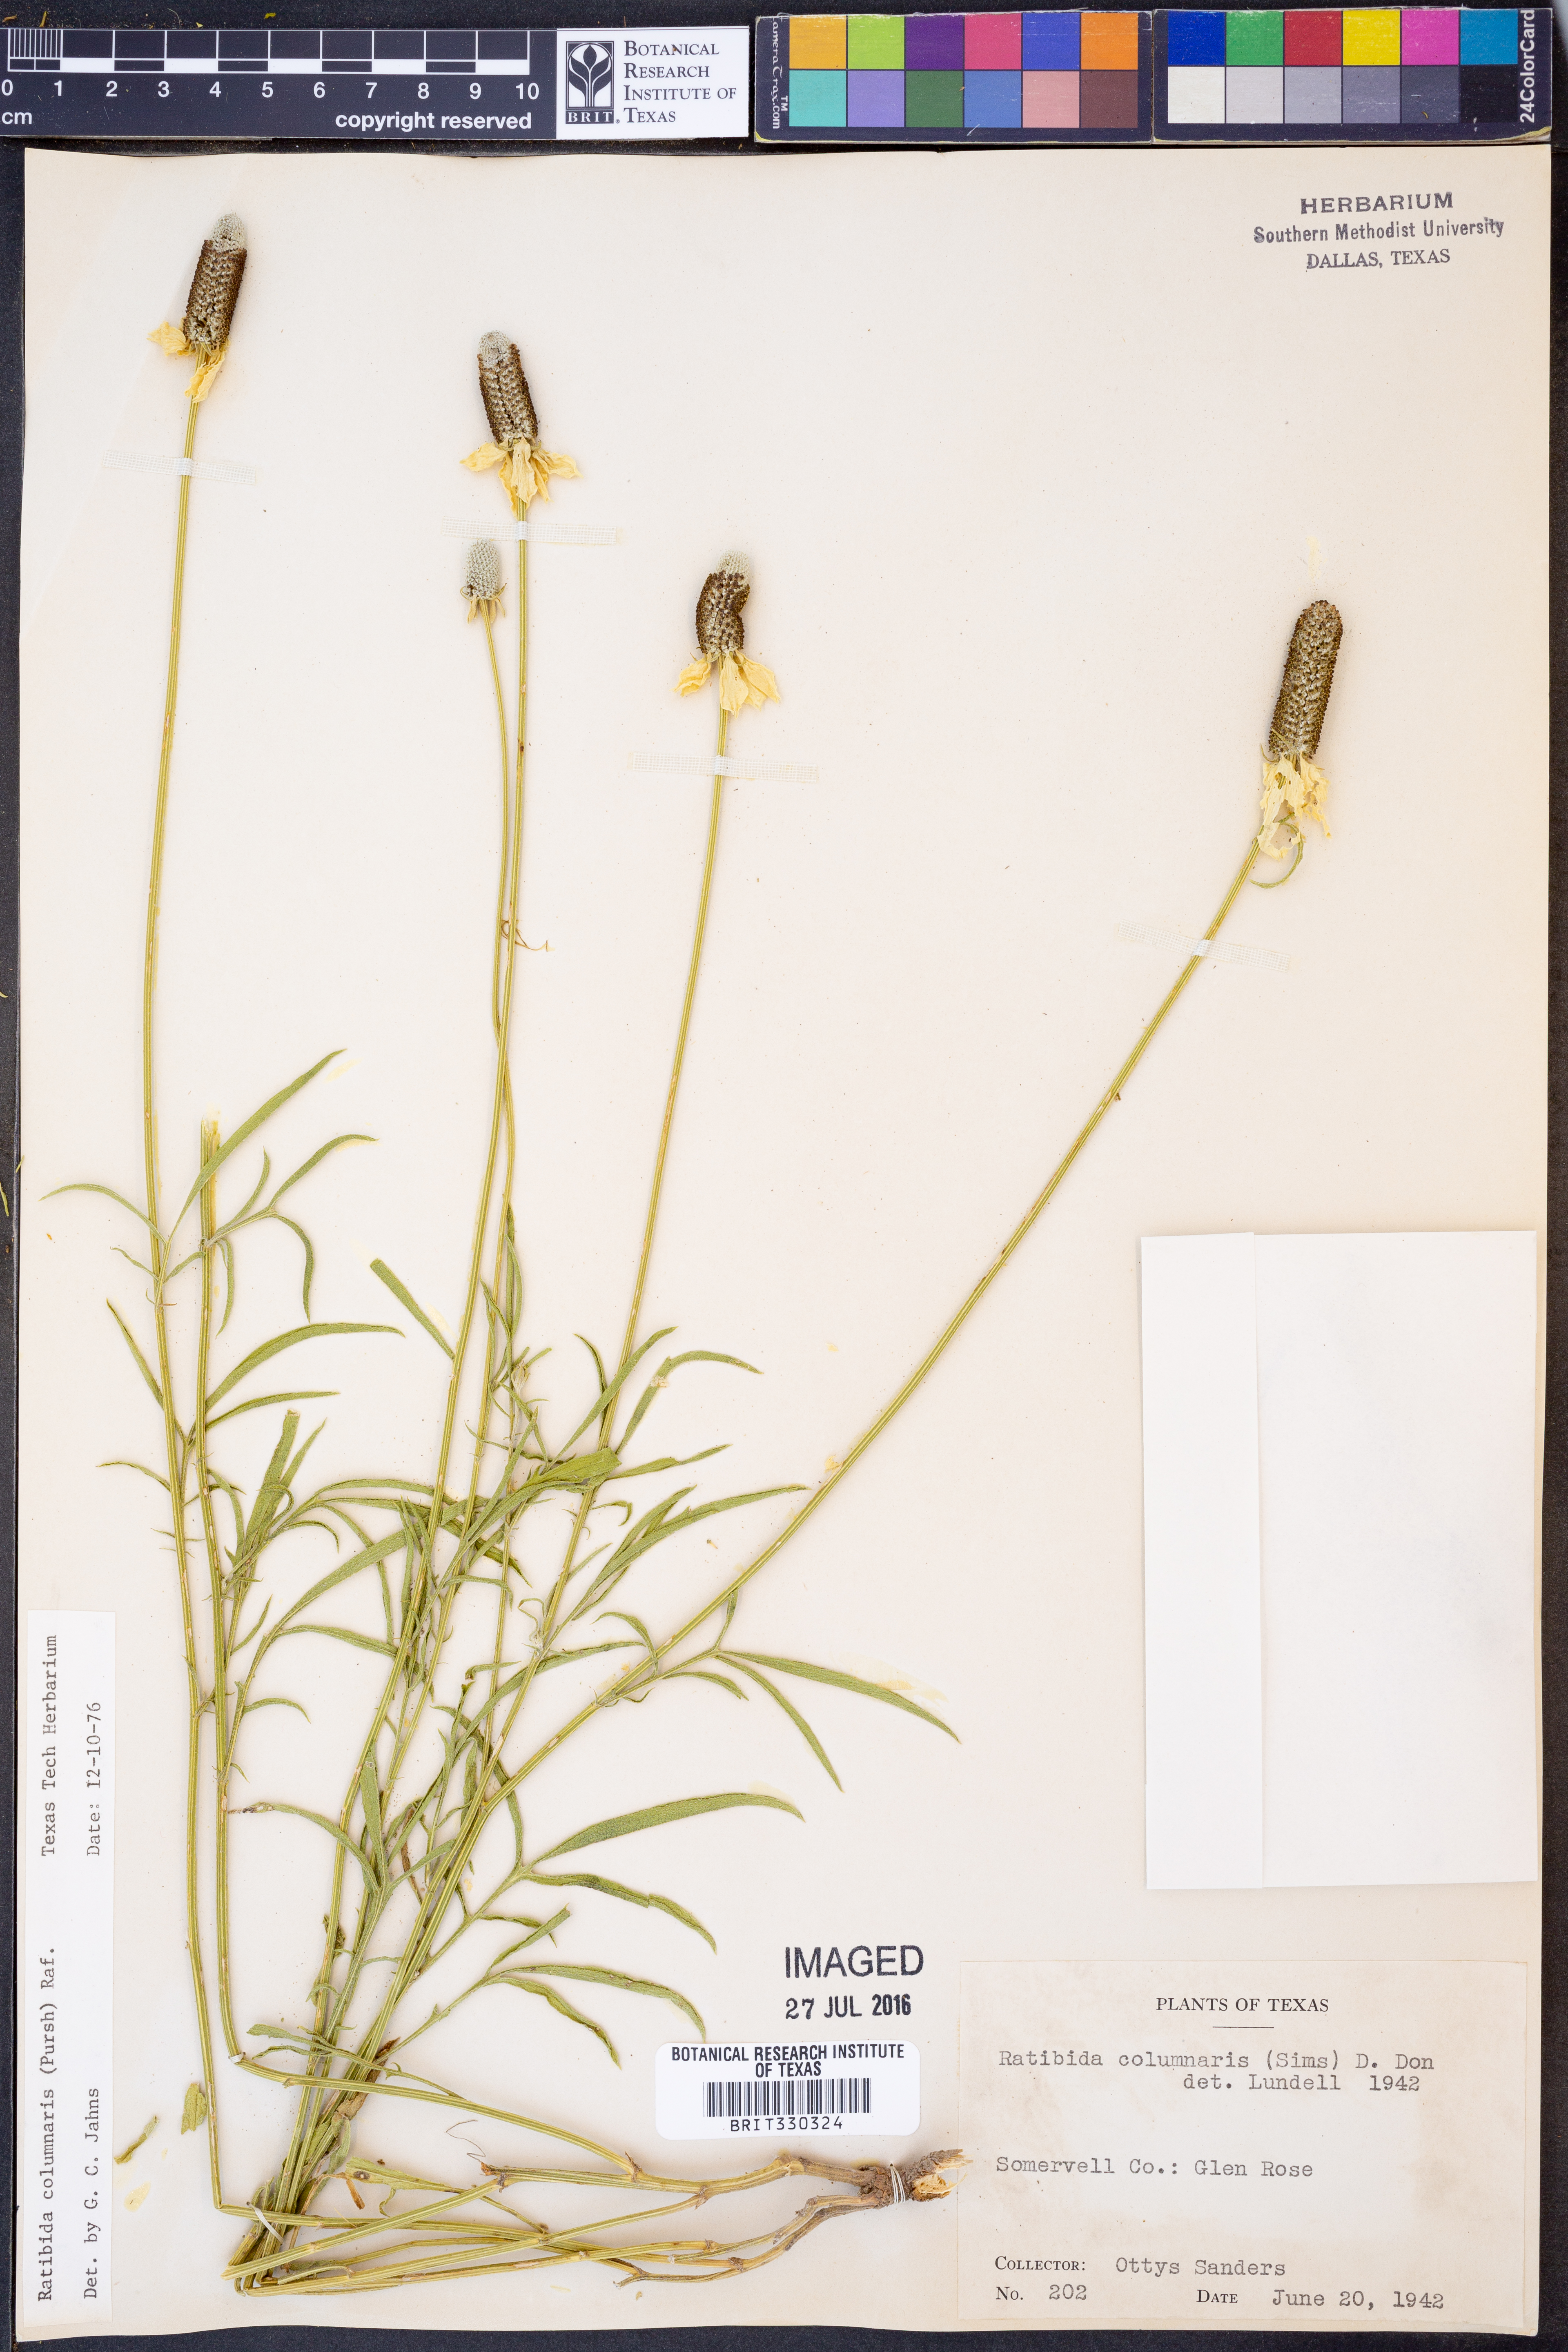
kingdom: Plantae
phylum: Tracheophyta
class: Magnoliopsida
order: Asterales
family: Asteraceae
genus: Ratibida
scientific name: Ratibida columnifera
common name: Prairie coneflower
